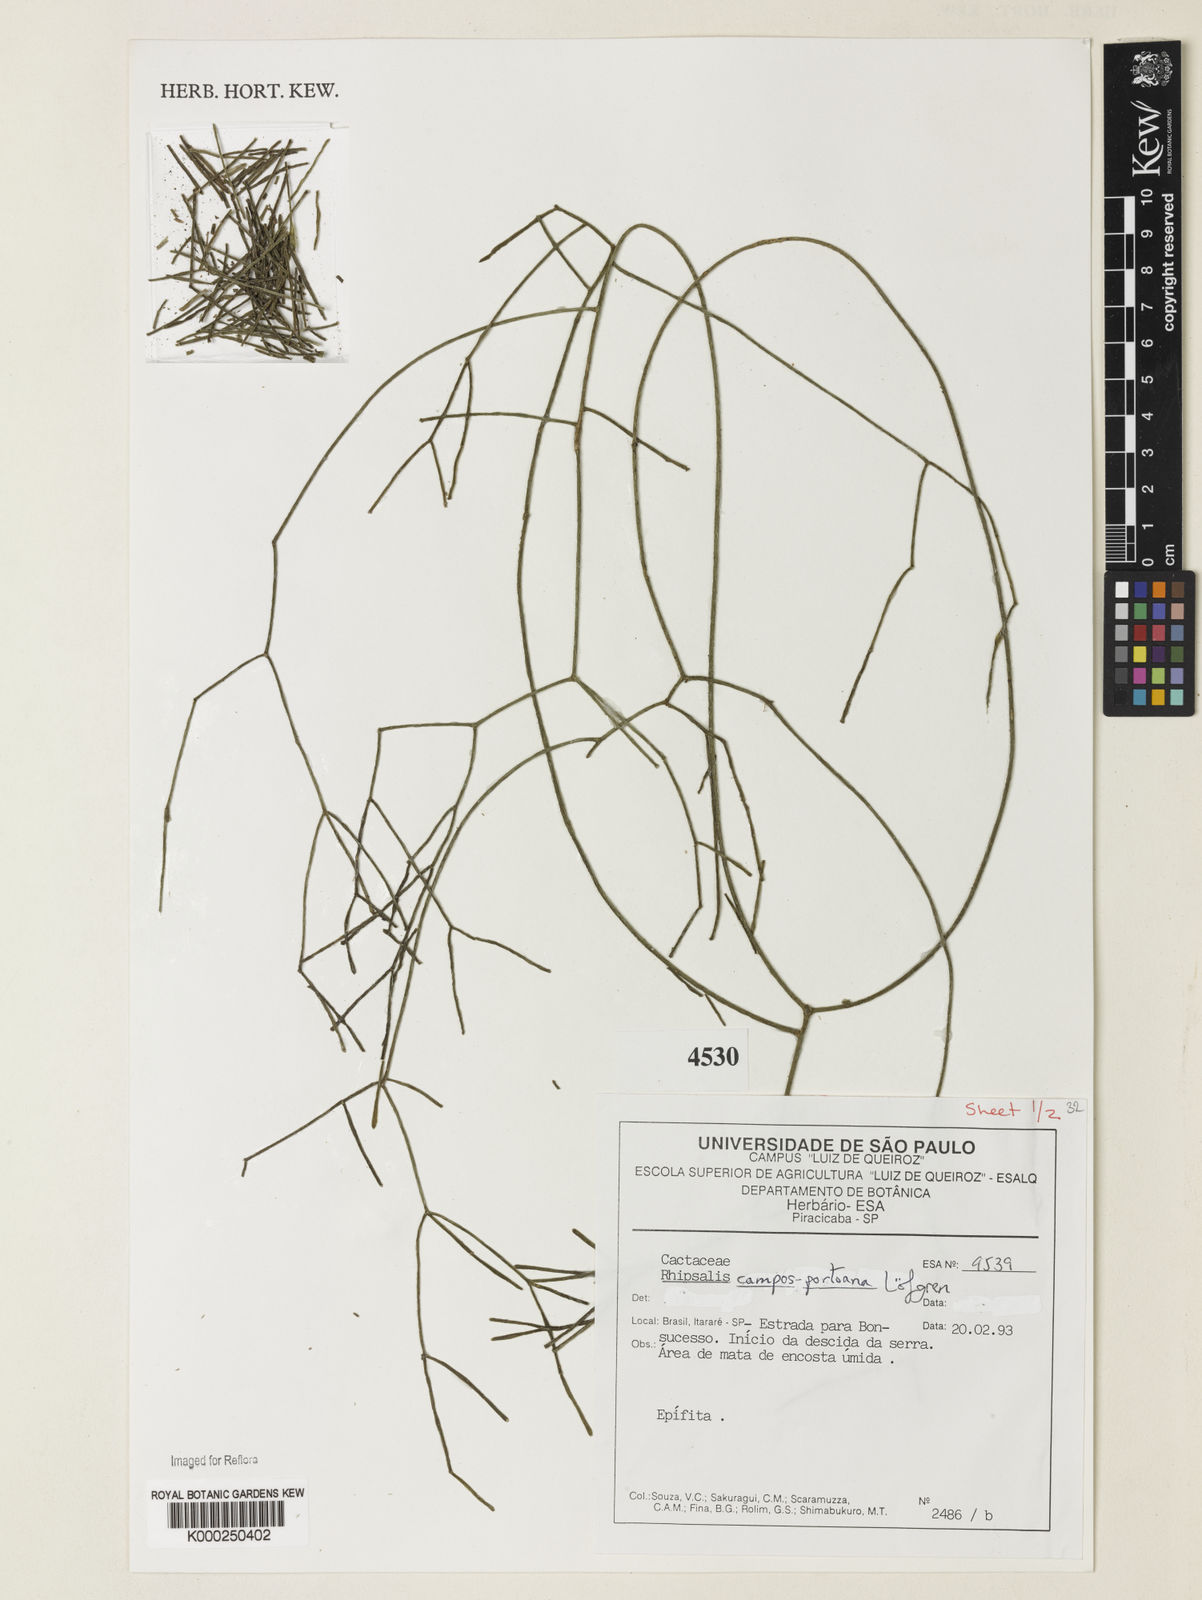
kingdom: Plantae
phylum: Tracheophyta
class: Magnoliopsida
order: Caryophyllales
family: Cactaceae
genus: Rhipsalis
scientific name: Rhipsalis
